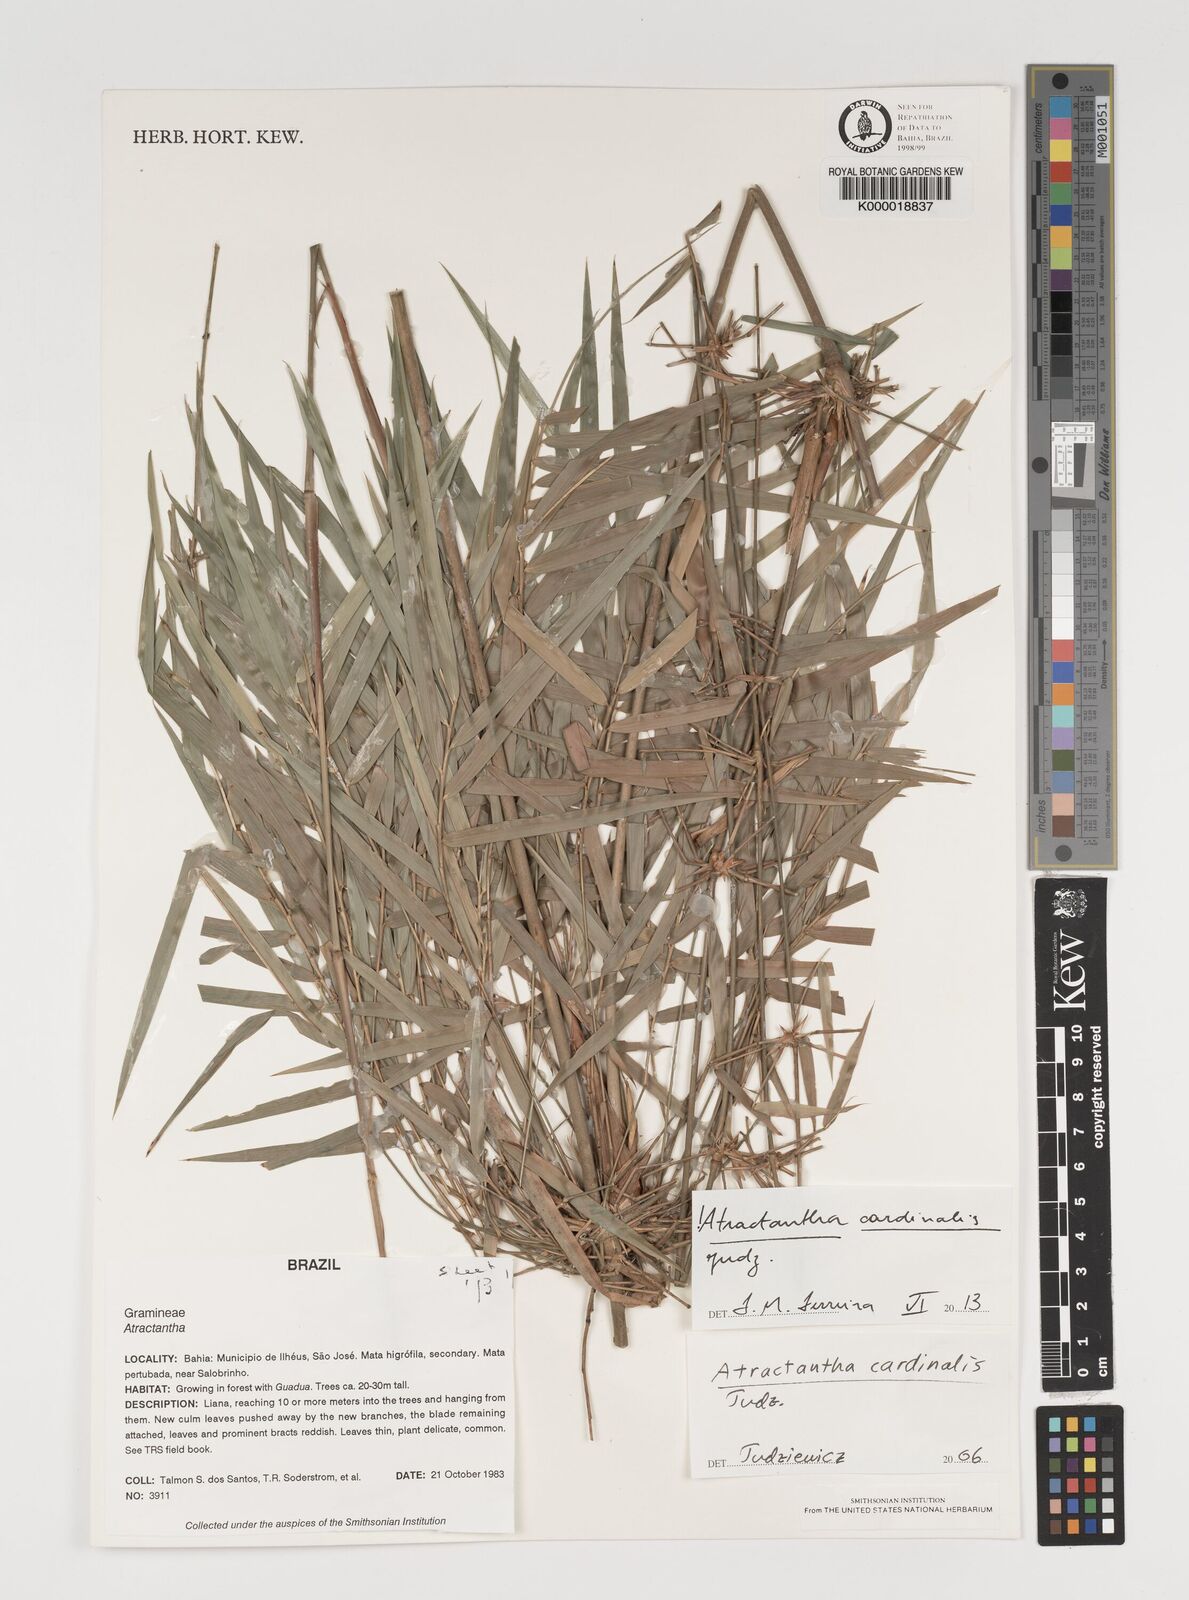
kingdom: Plantae
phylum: Tracheophyta
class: Liliopsida
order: Poales
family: Poaceae
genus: Atractantha
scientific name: Atractantha
